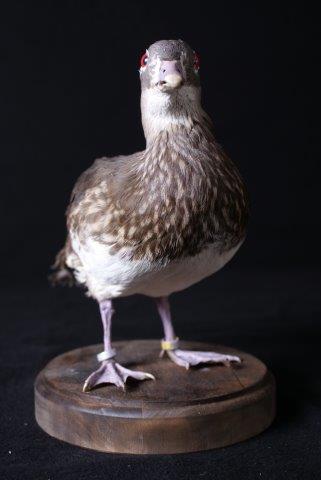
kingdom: Animalia
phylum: Chordata
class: Aves
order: Anseriformes
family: Anatidae
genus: Aix
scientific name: Aix galericulata
